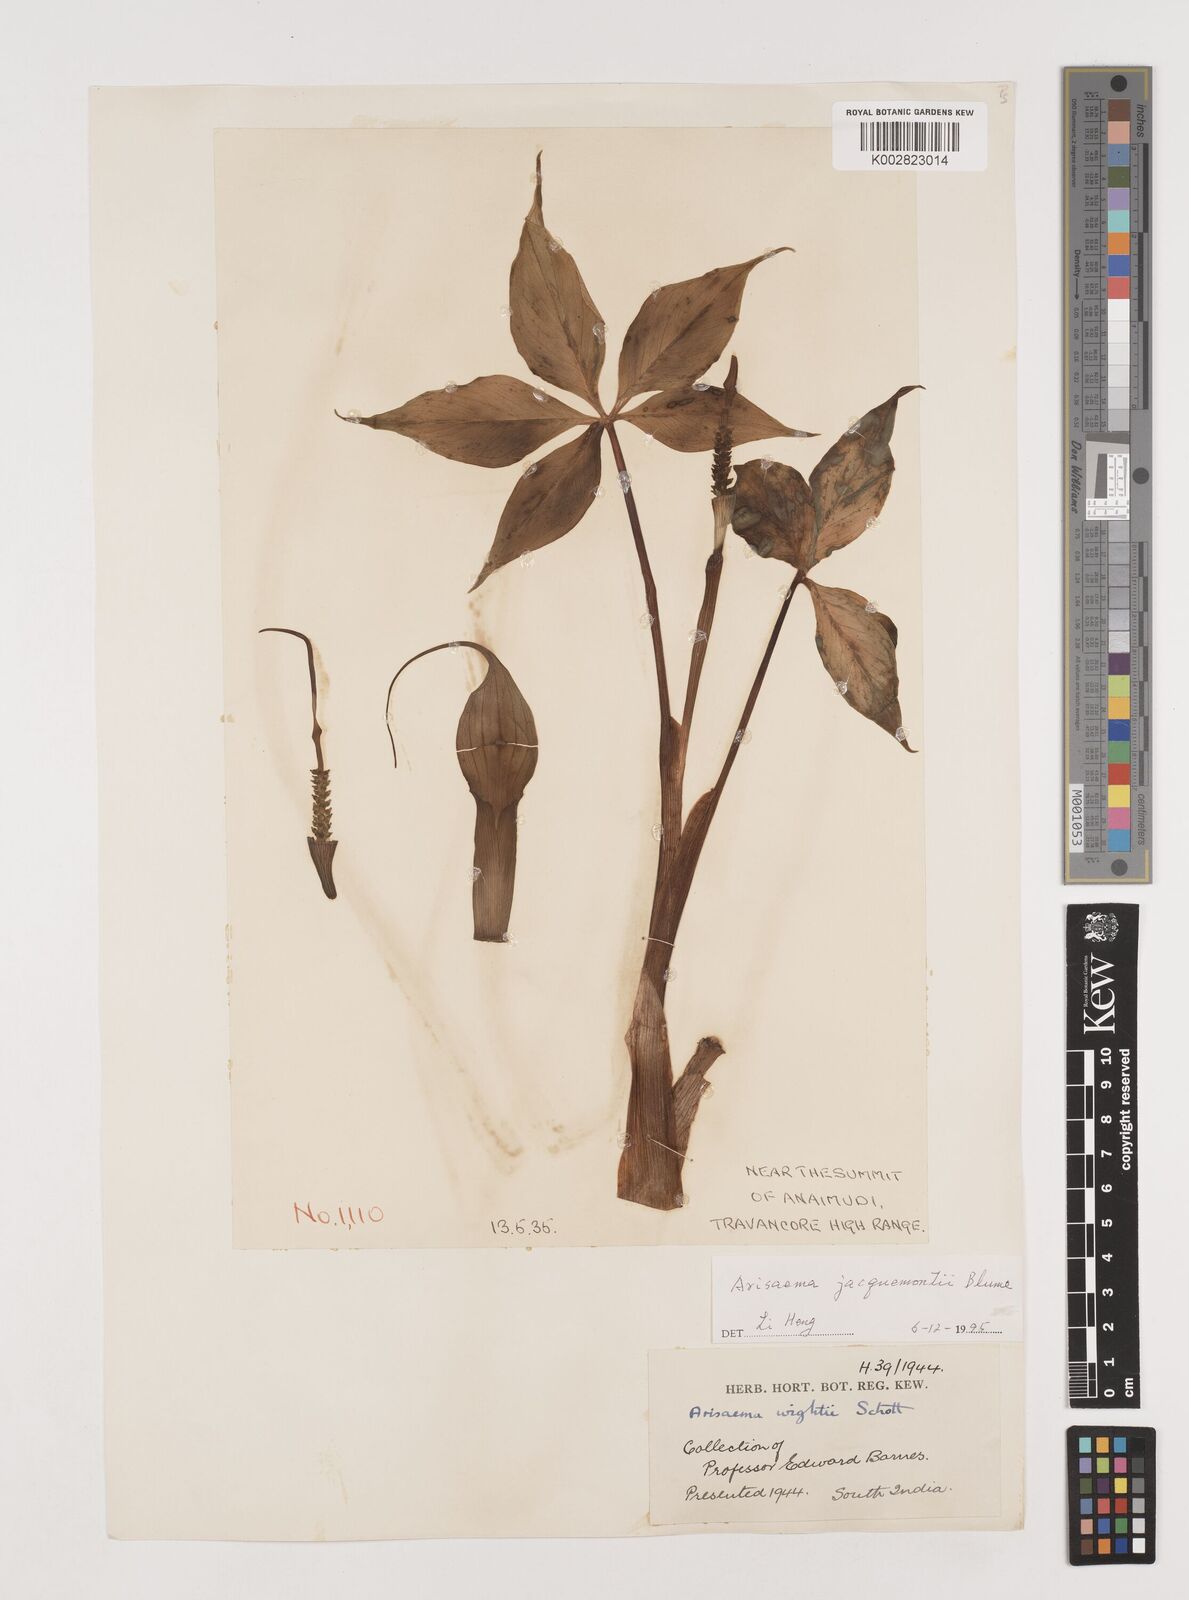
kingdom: Plantae
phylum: Tracheophyta
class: Liliopsida
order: Alismatales
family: Araceae
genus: Arisaema
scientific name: Arisaema jacquemontii
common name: Jacquemont's cobra-lily
